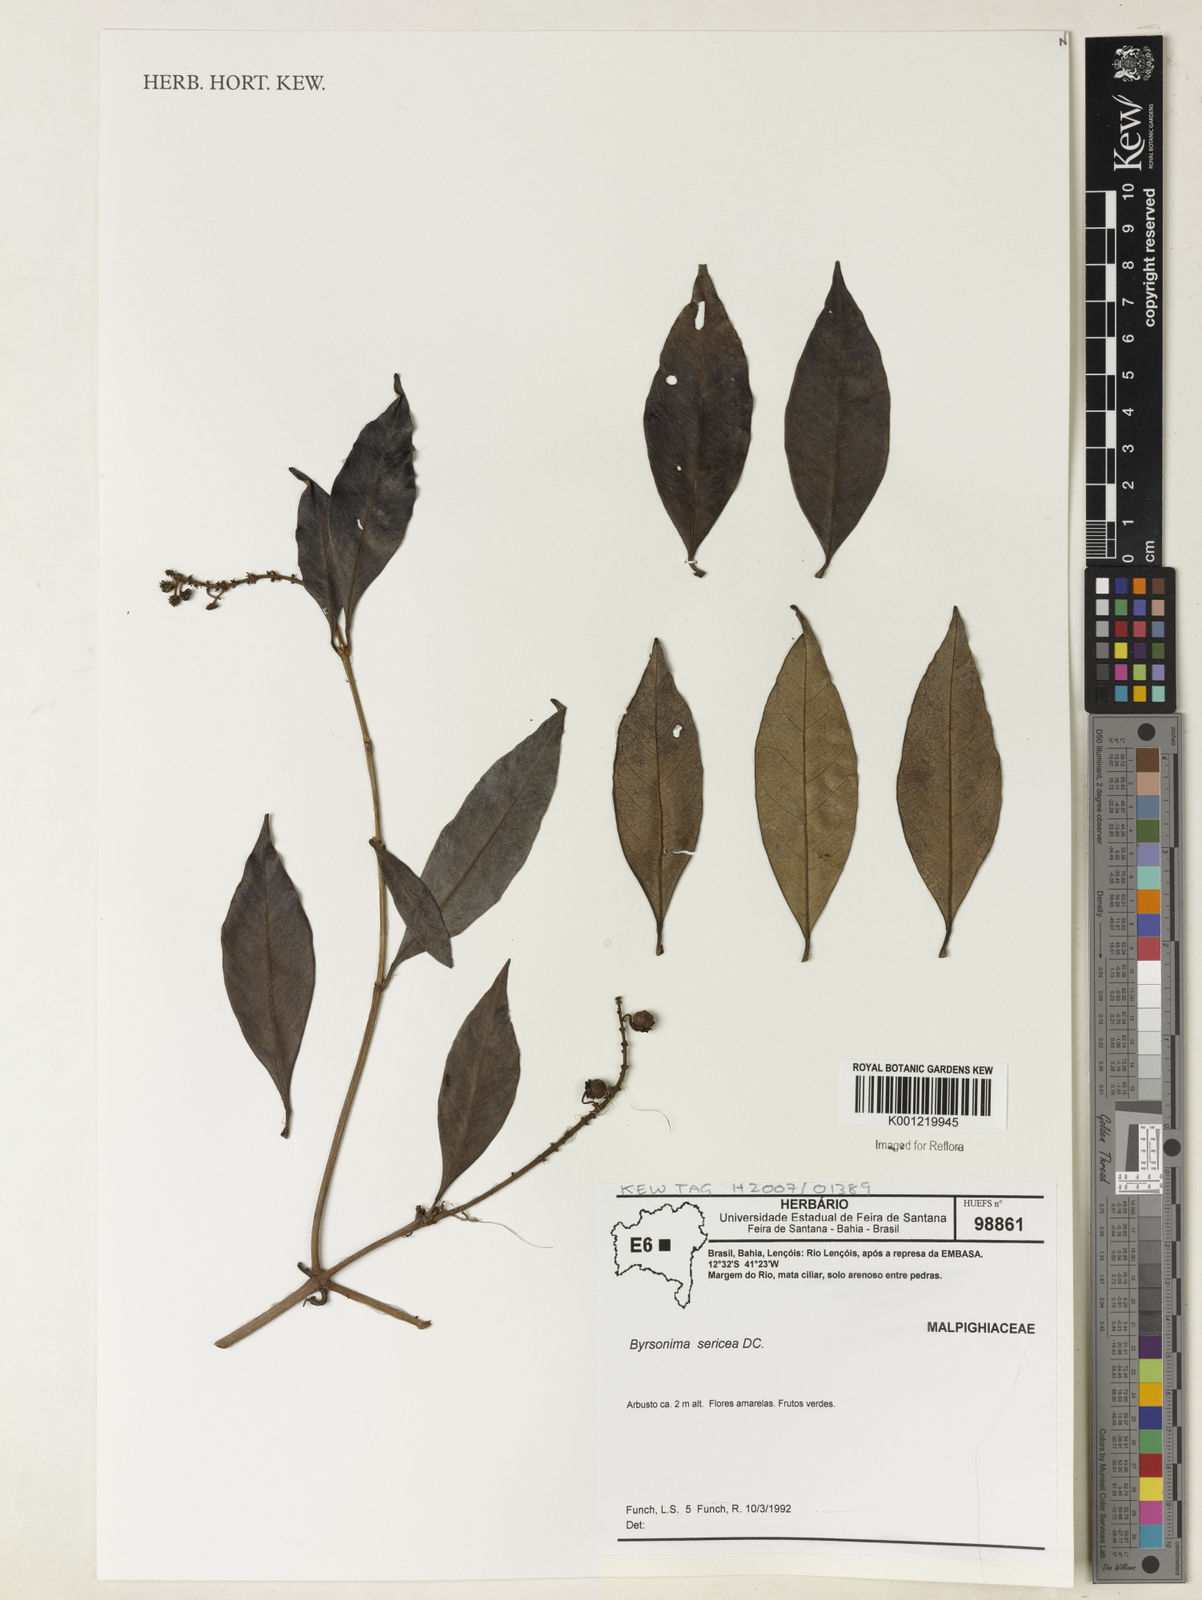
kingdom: Plantae
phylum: Tracheophyta
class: Magnoliopsida
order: Malpighiales
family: Malpighiaceae
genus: Byrsonima
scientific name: Byrsonima sericea
